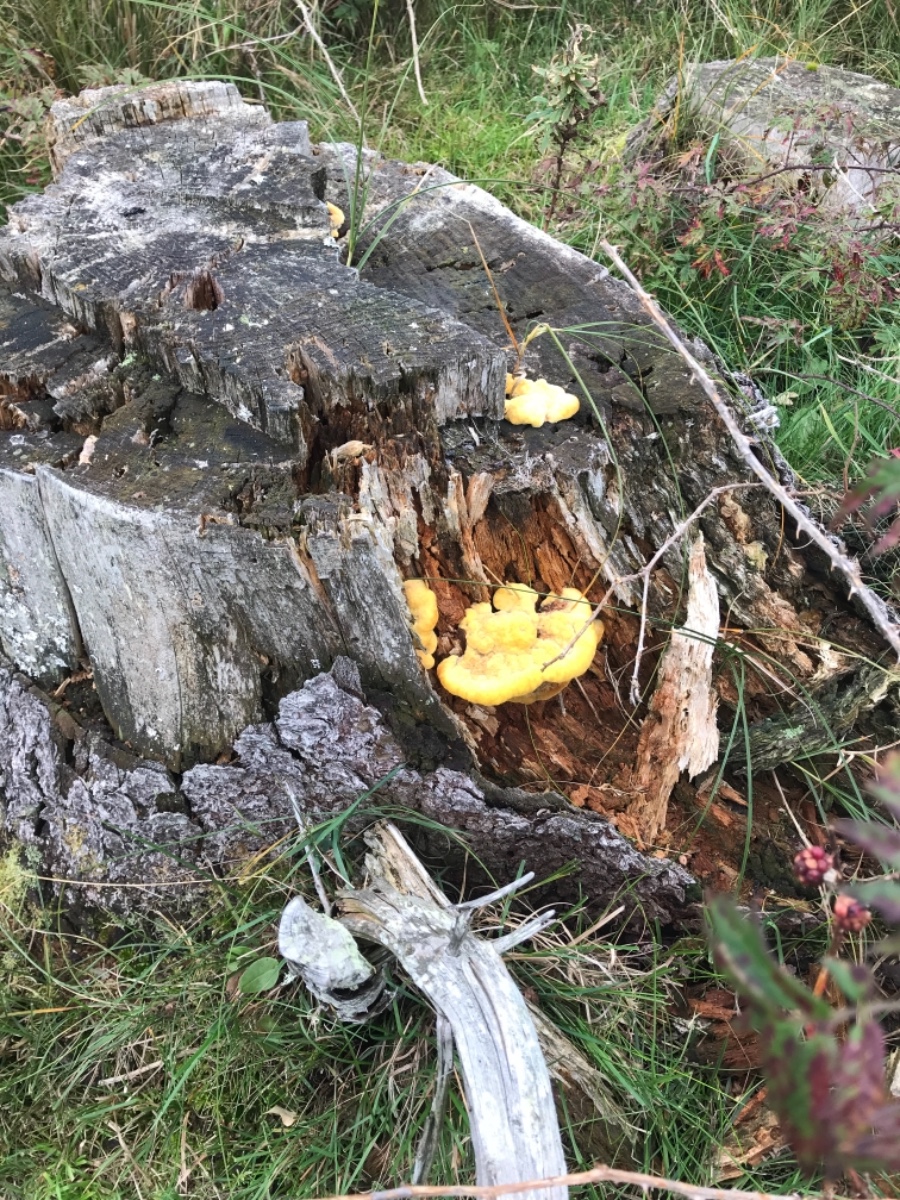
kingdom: Fungi
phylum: Basidiomycota
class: Agaricomycetes
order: Polyporales
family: Laetiporaceae
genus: Phaeolus
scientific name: Phaeolus schweinitzii
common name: brunporesvamp
